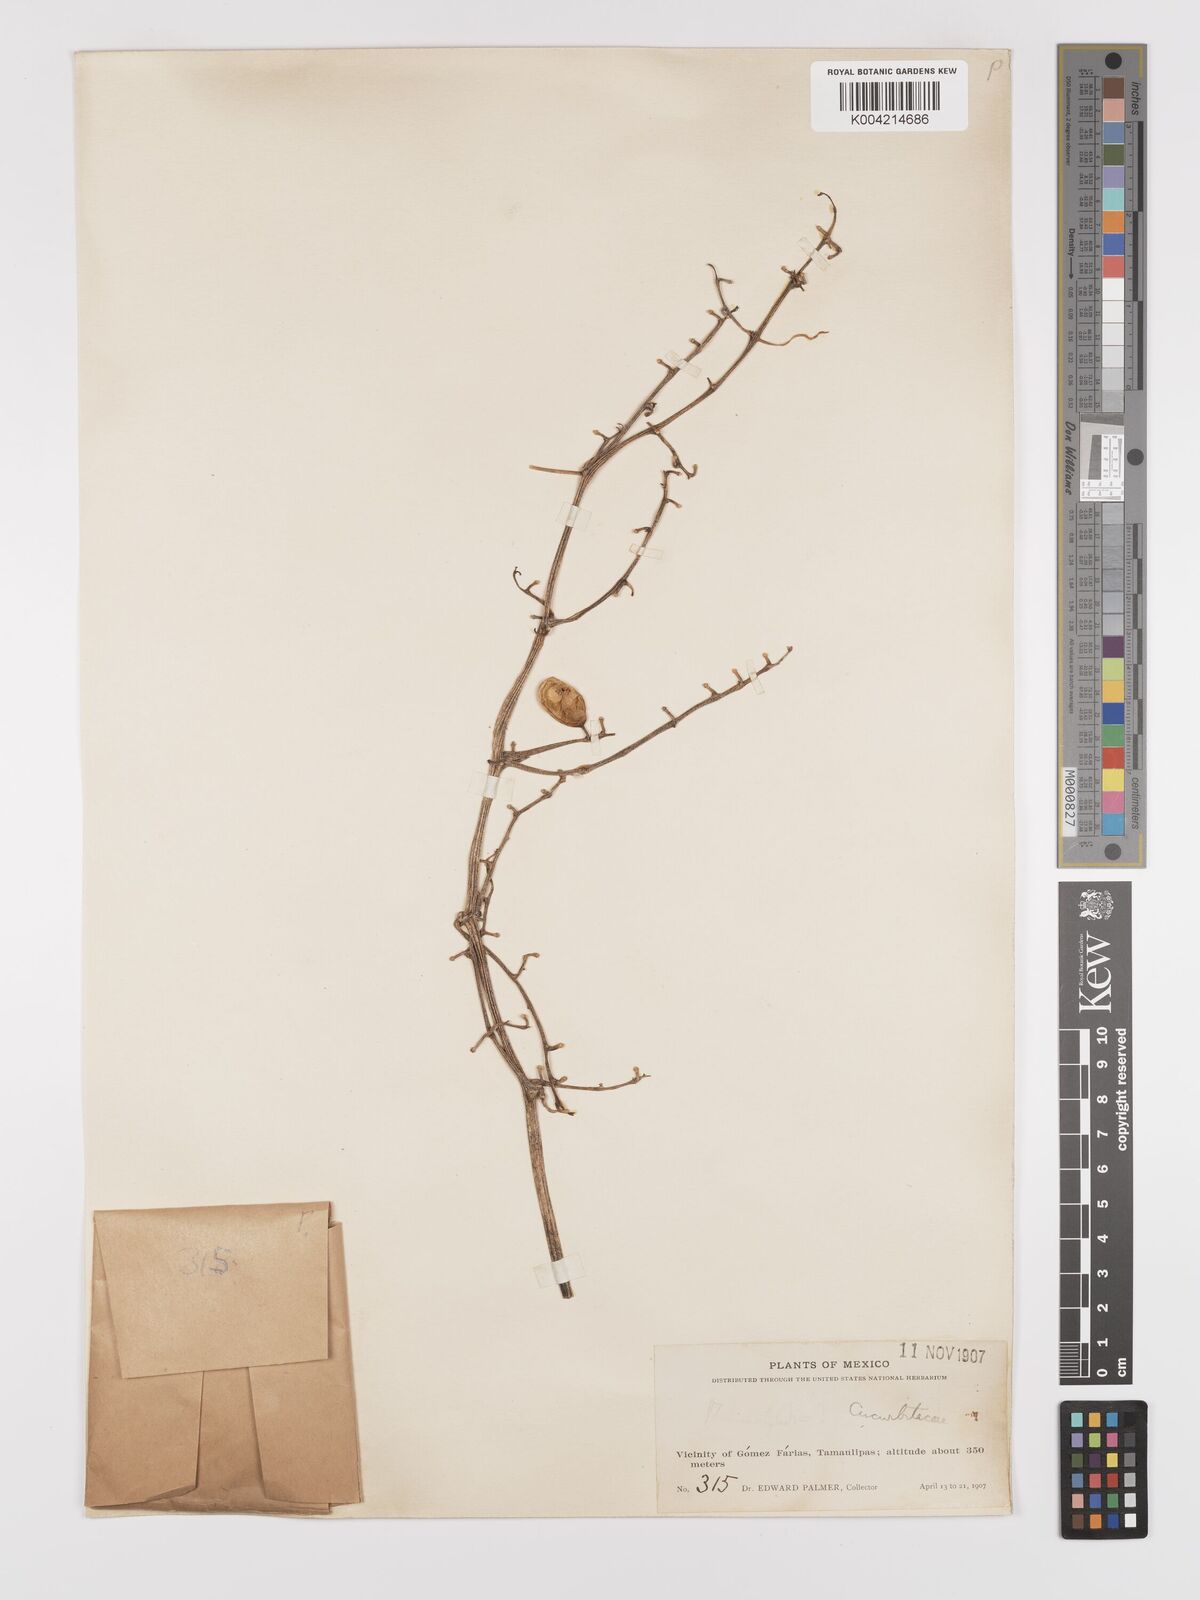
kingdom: Plantae
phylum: Tracheophyta
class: Magnoliopsida
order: Cucurbitales
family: Cucurbitaceae
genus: Cayaponia
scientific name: Cayaponia racemosa
